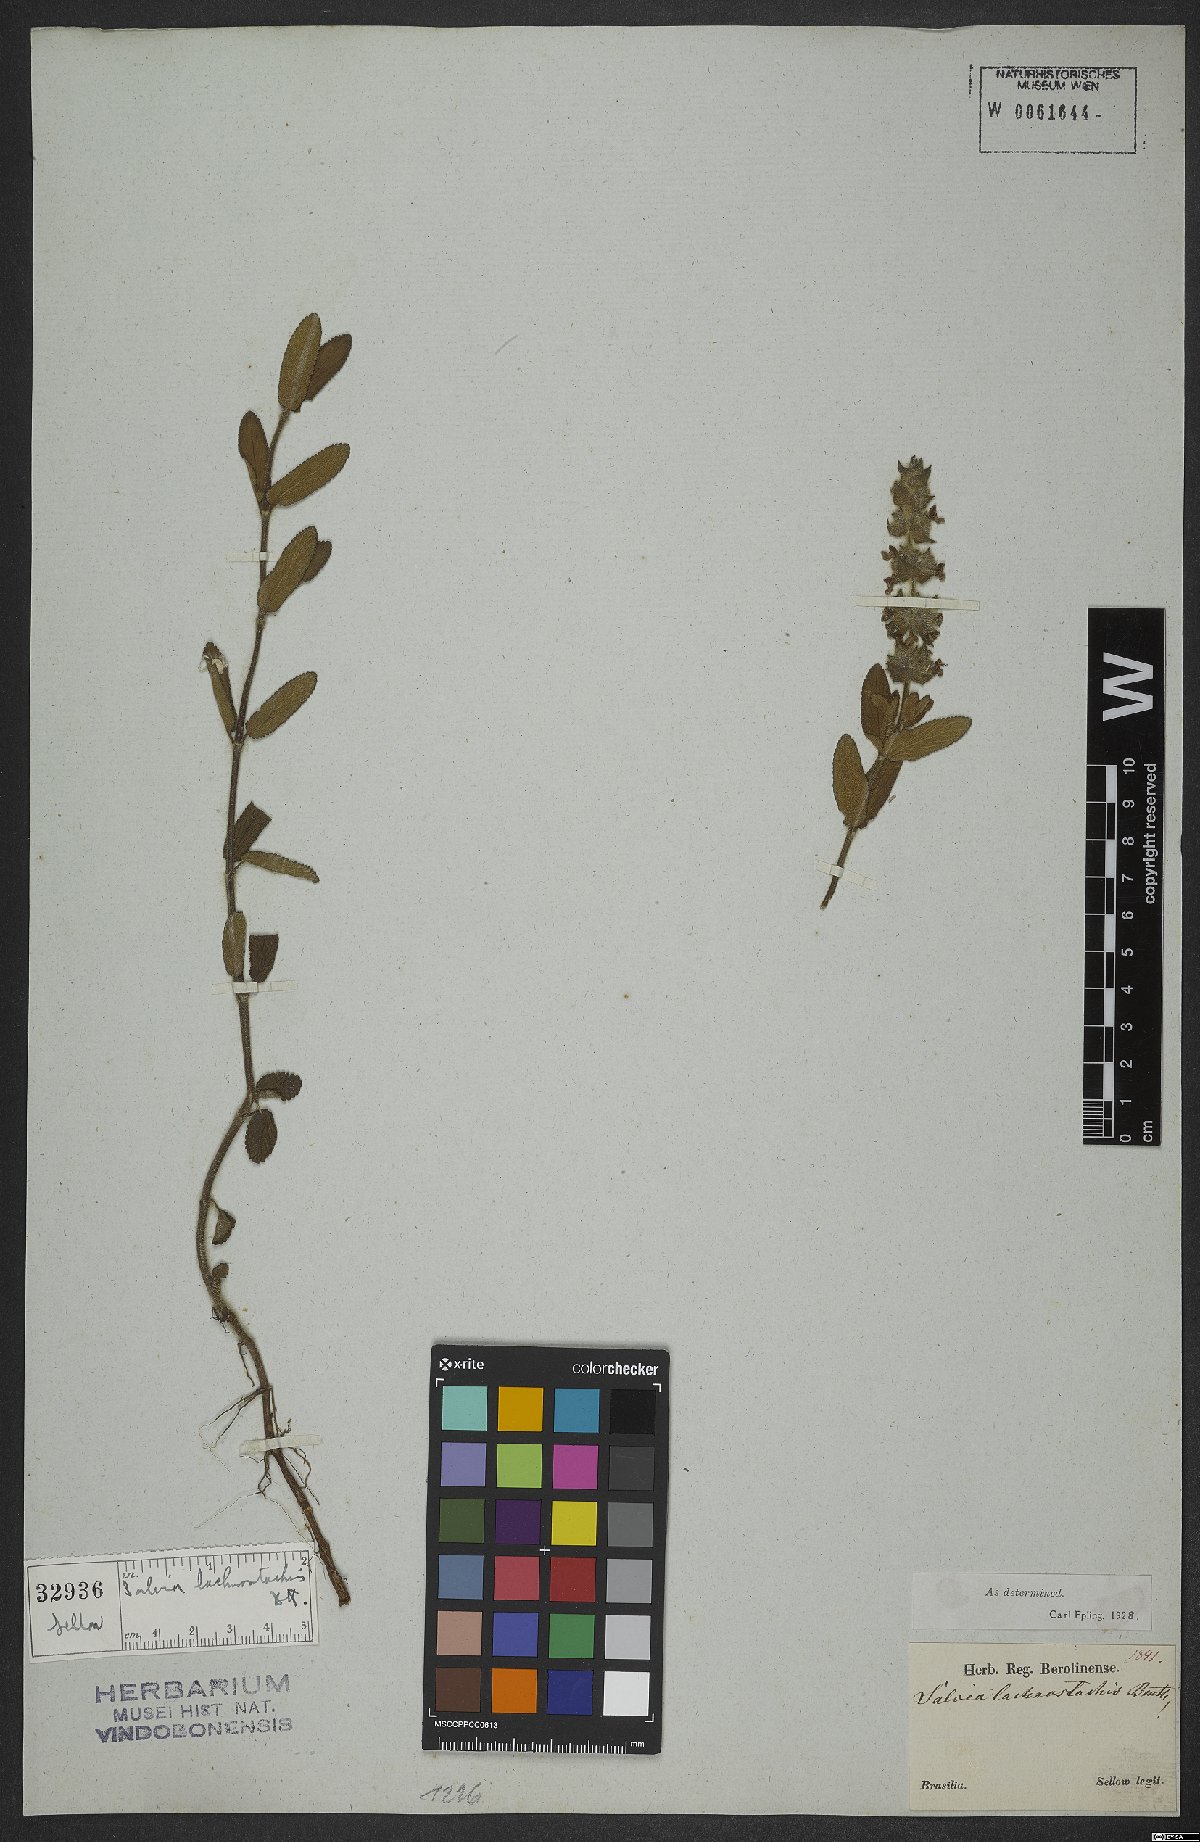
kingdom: Plantae
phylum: Tracheophyta
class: Magnoliopsida
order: Lamiales
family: Lamiaceae
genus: Salvia
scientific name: Salvia lachnostachys
